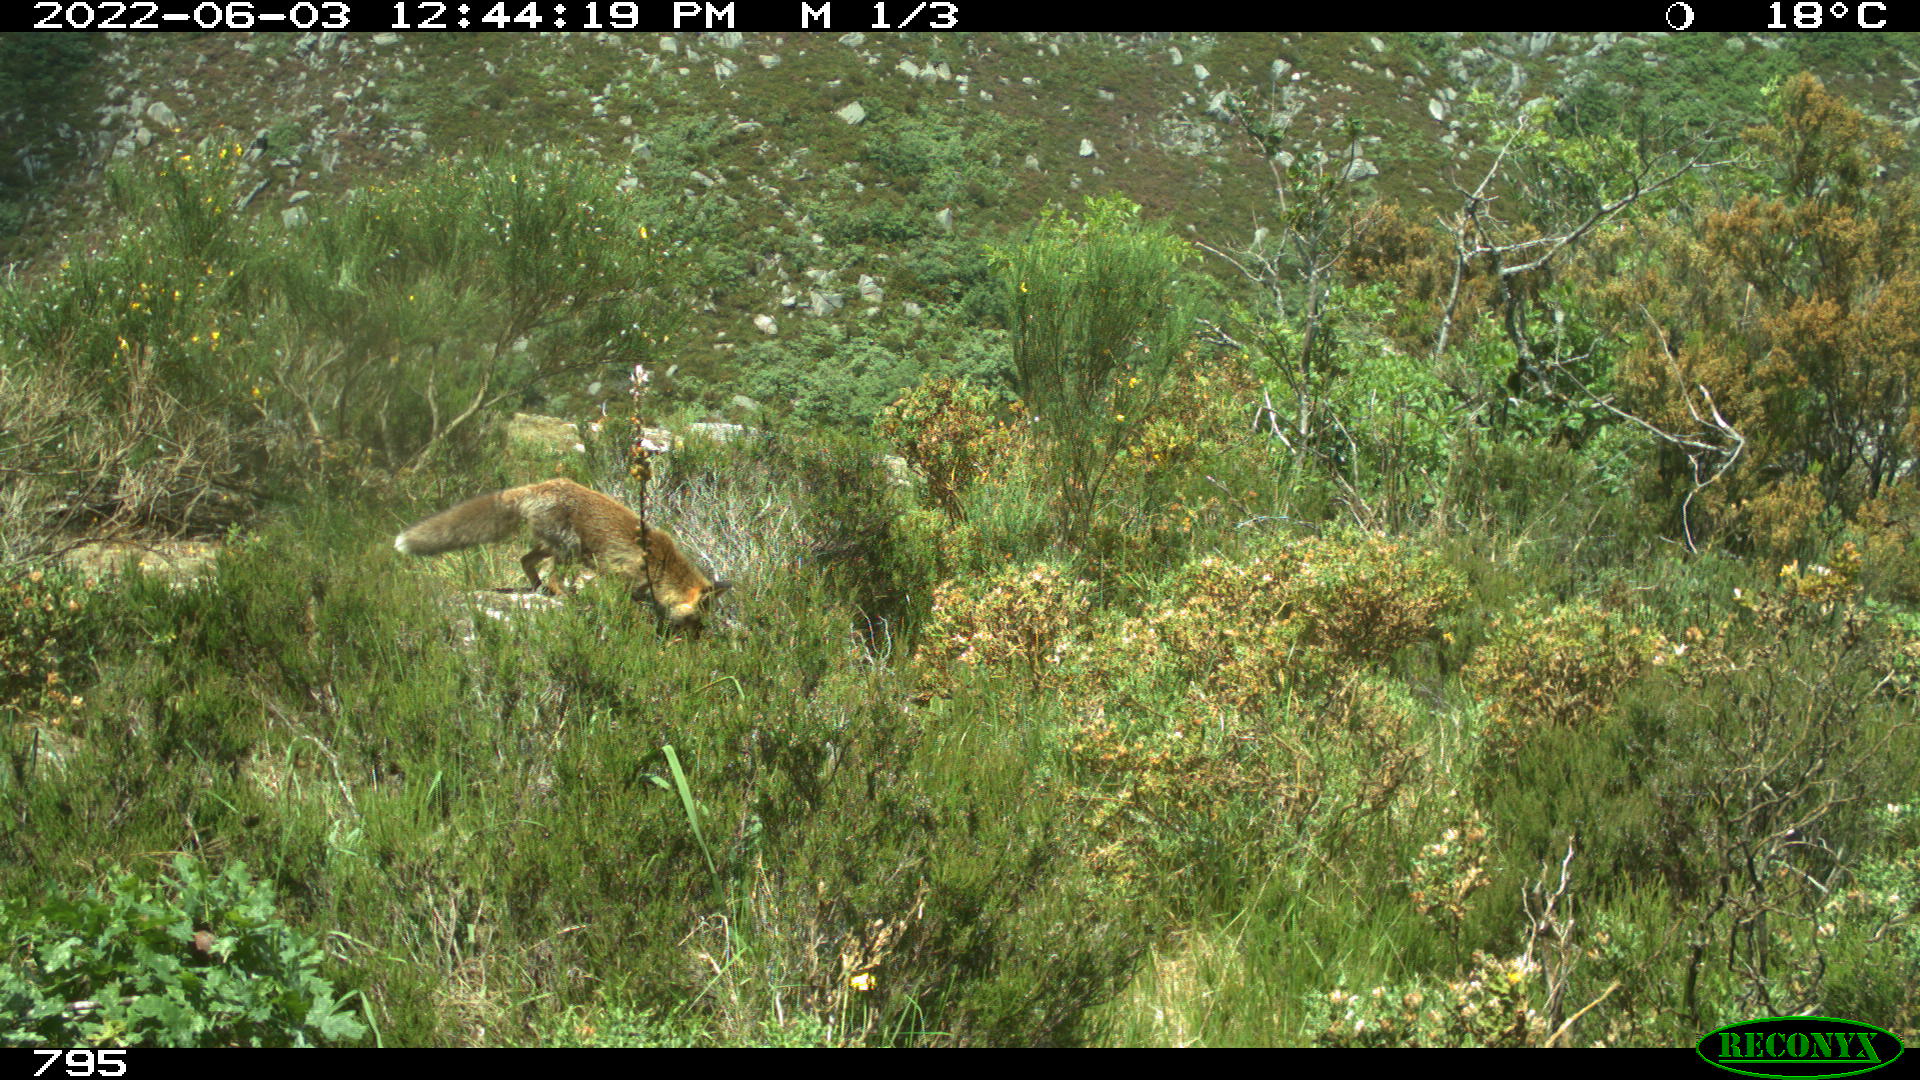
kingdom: Animalia
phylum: Chordata
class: Mammalia
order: Carnivora
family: Canidae
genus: Vulpes
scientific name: Vulpes vulpes
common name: Red fox
